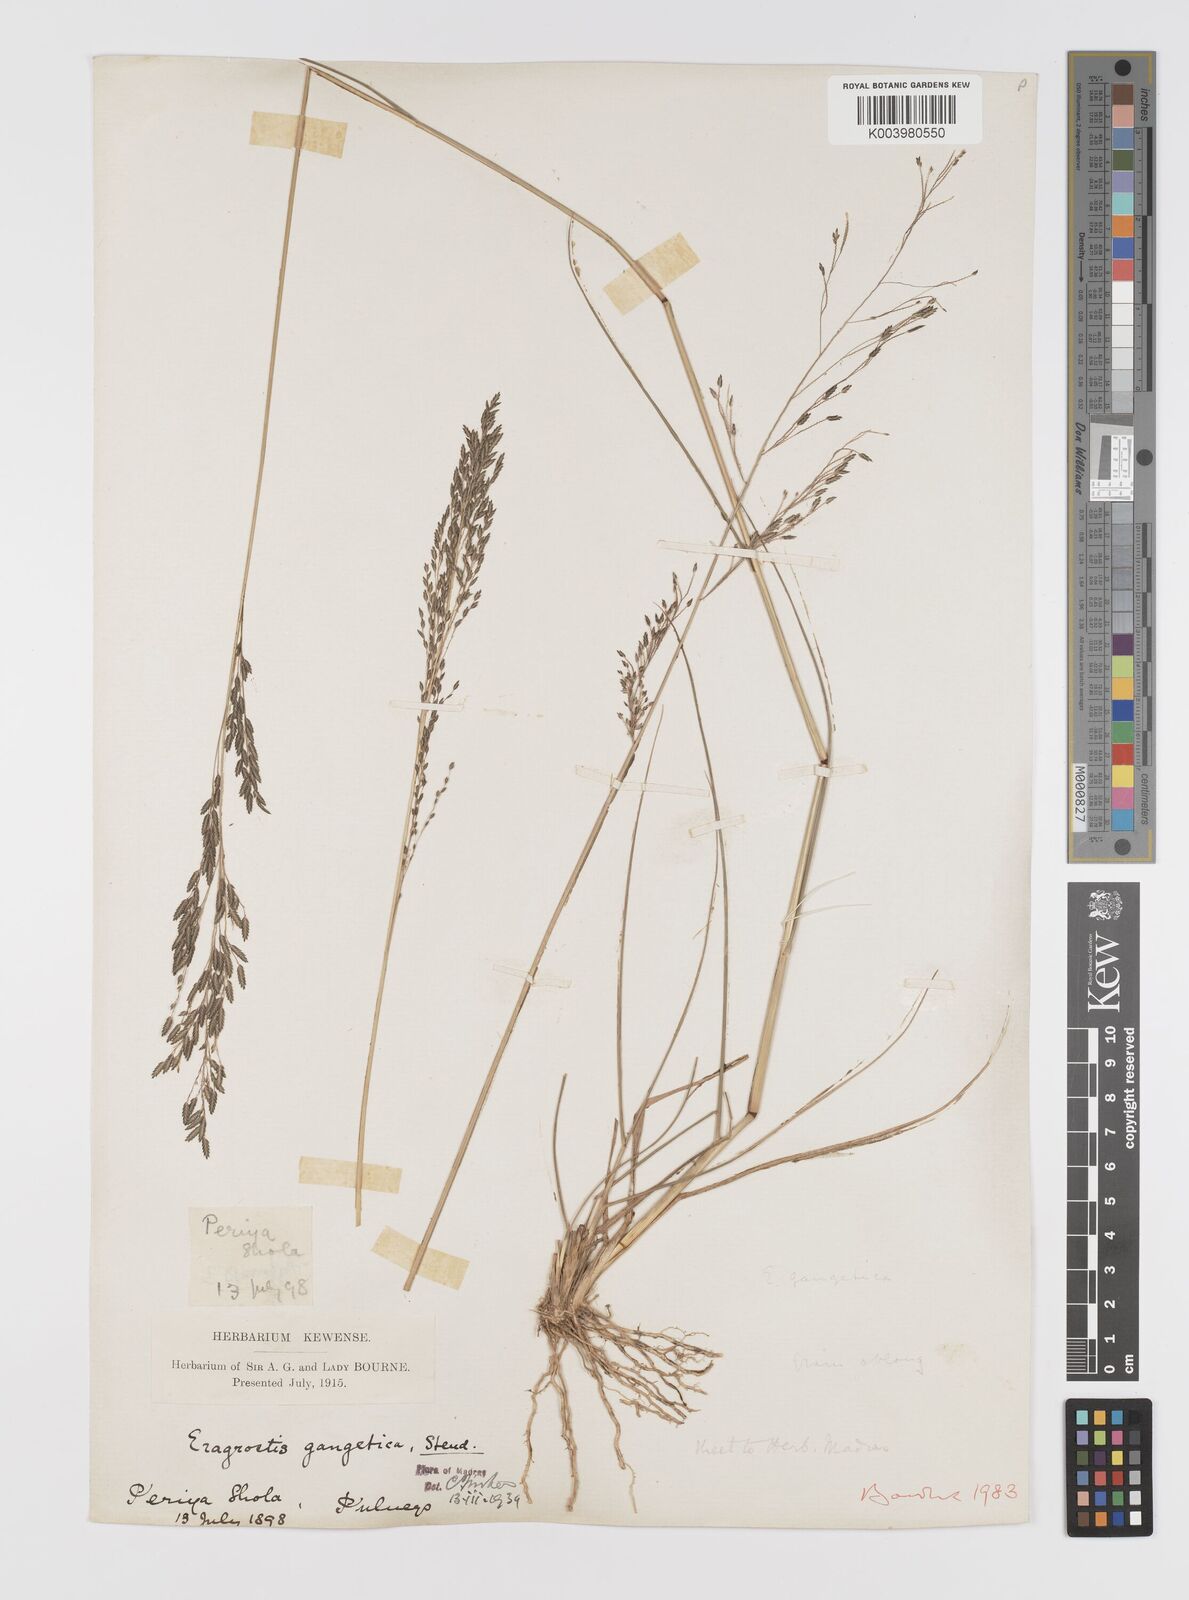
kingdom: Plantae
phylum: Tracheophyta
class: Liliopsida
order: Poales
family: Poaceae
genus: Eragrostis
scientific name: Eragrostis
